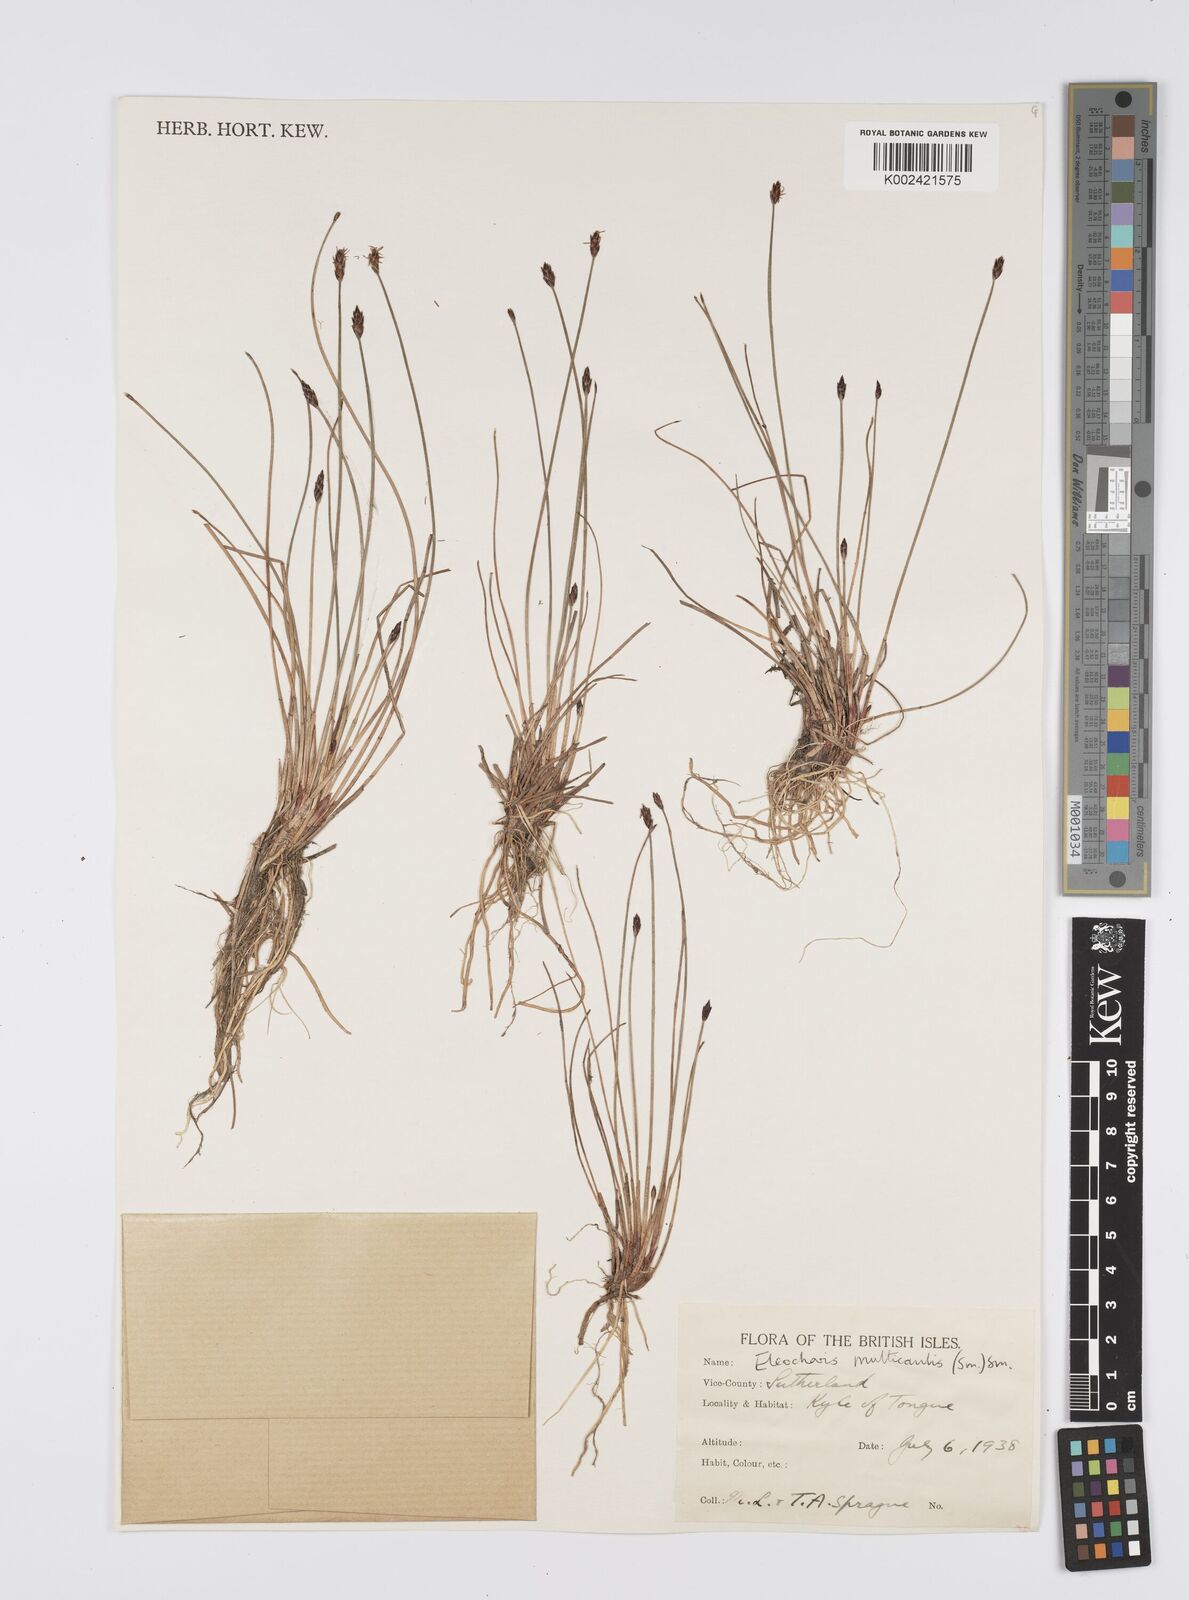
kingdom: Plantae
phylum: Tracheophyta
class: Liliopsida
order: Poales
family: Cyperaceae
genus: Eleocharis
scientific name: Eleocharis multicaulis
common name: Many-stalked spike-rush
